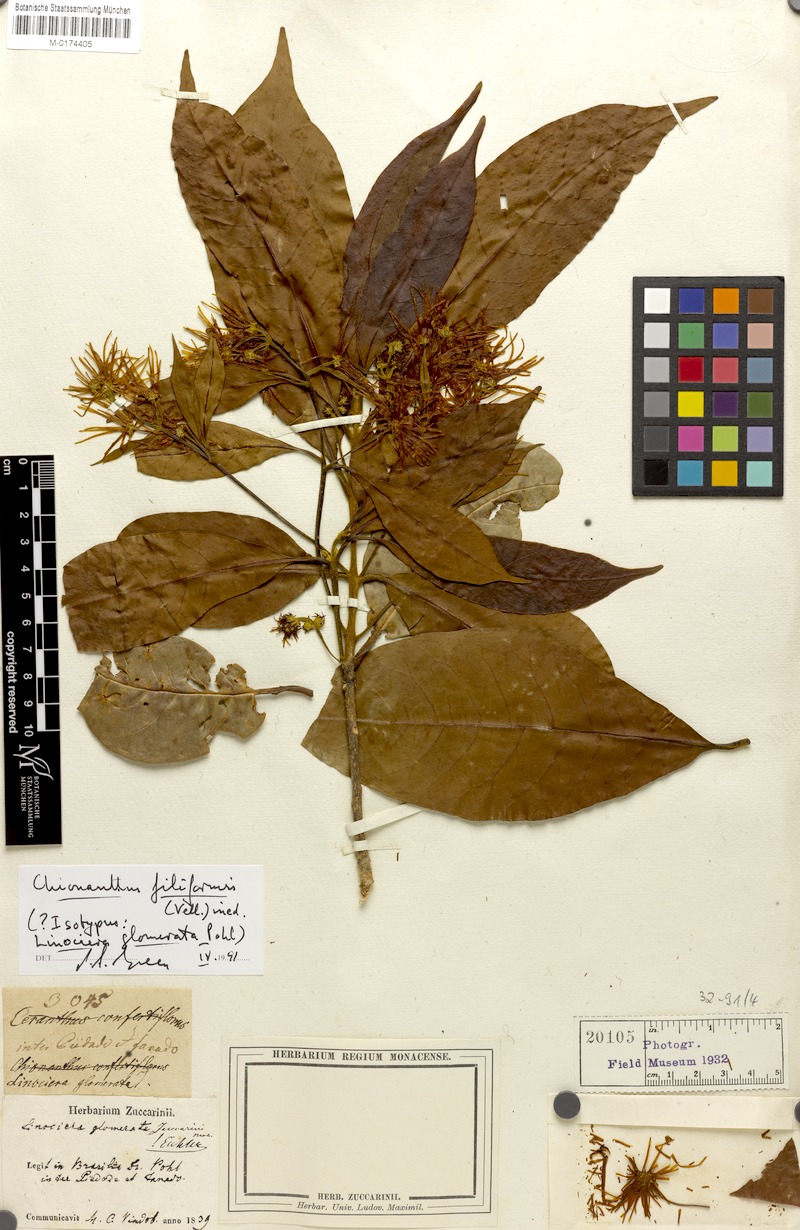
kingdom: Plantae
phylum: Tracheophyta
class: Magnoliopsida
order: Lamiales
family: Oleaceae
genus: Chionanthus
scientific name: Chionanthus trichotomus
